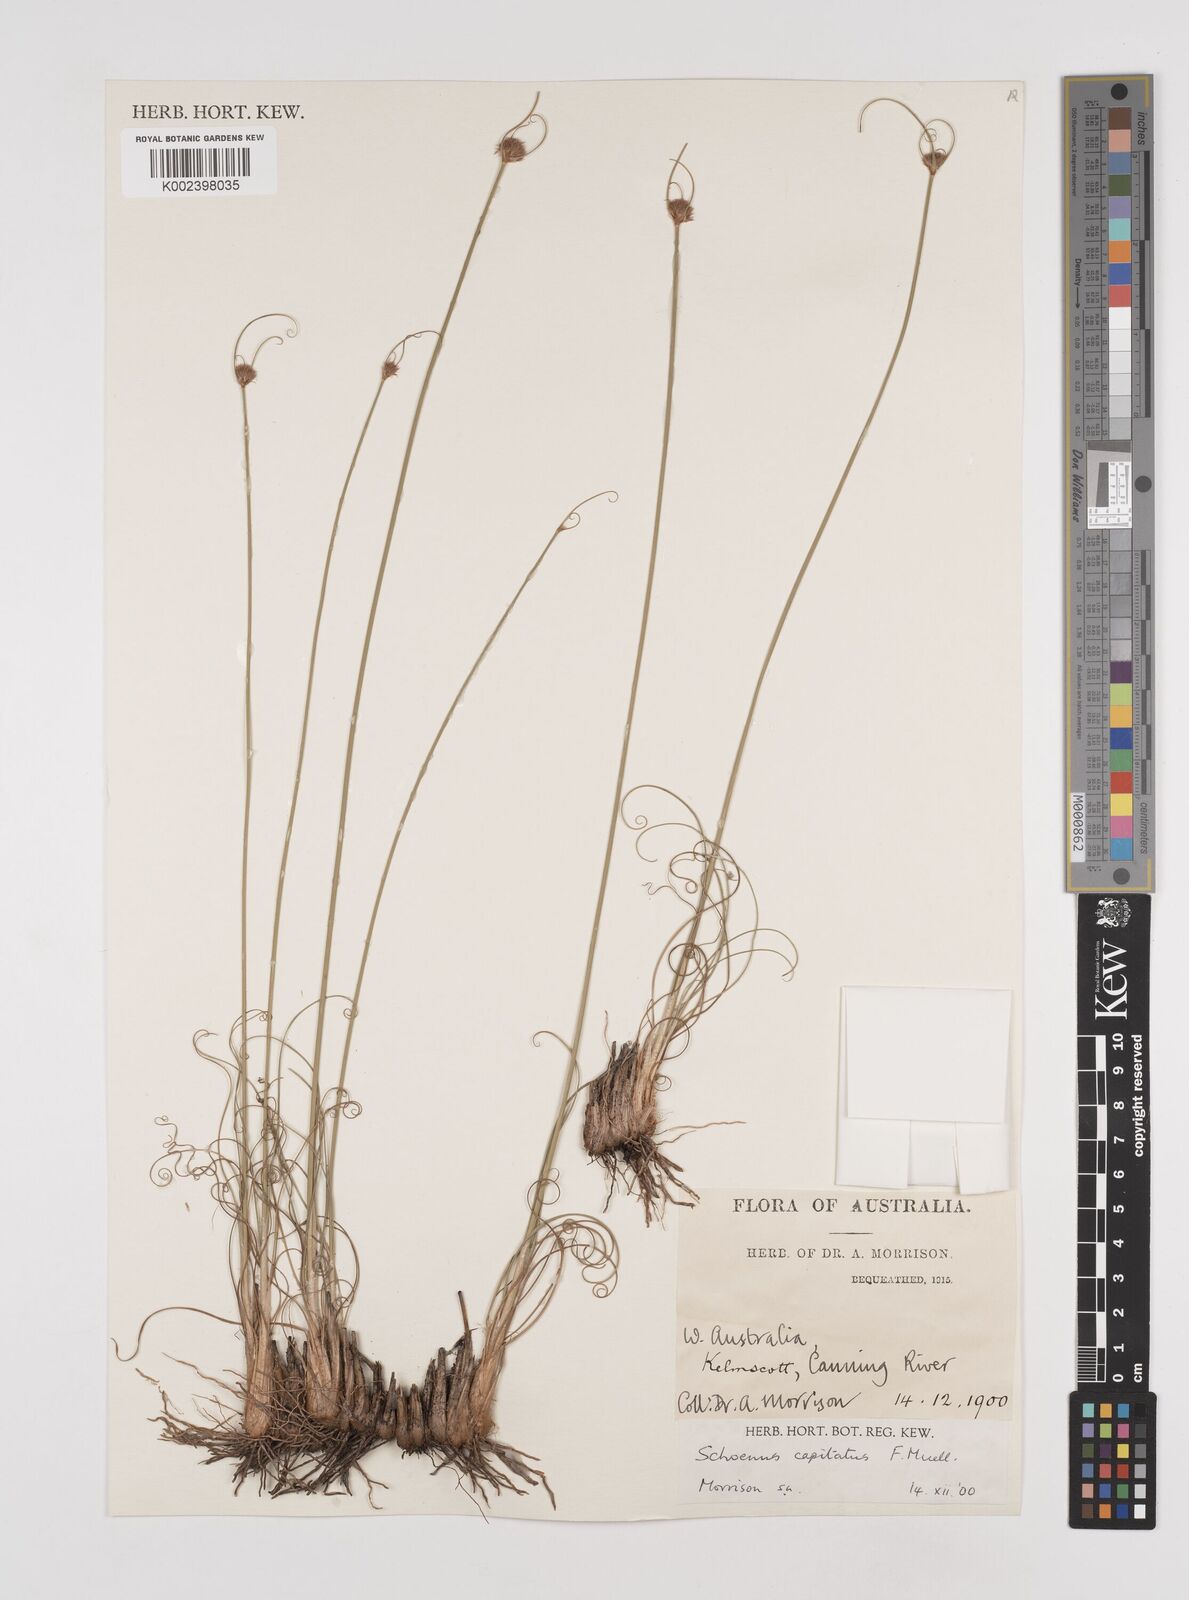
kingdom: Plantae
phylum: Tracheophyta
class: Liliopsida
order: Poales
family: Cyperaceae
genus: Schoenus
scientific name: Schoenus subbulbosus
